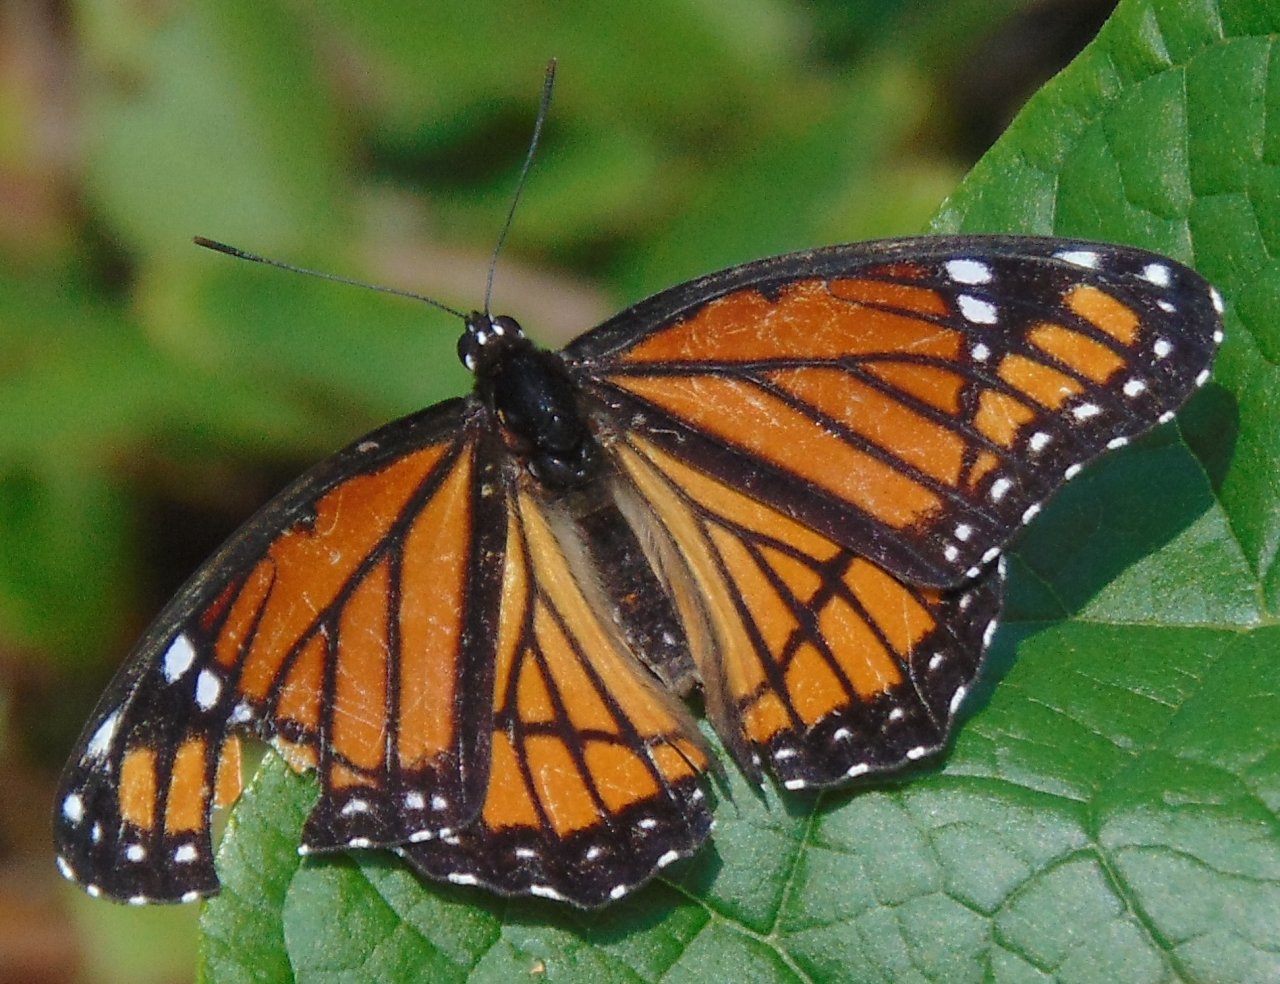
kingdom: Animalia
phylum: Arthropoda
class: Insecta
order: Lepidoptera
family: Nymphalidae
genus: Limenitis
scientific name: Limenitis archippus
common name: Viceroy
